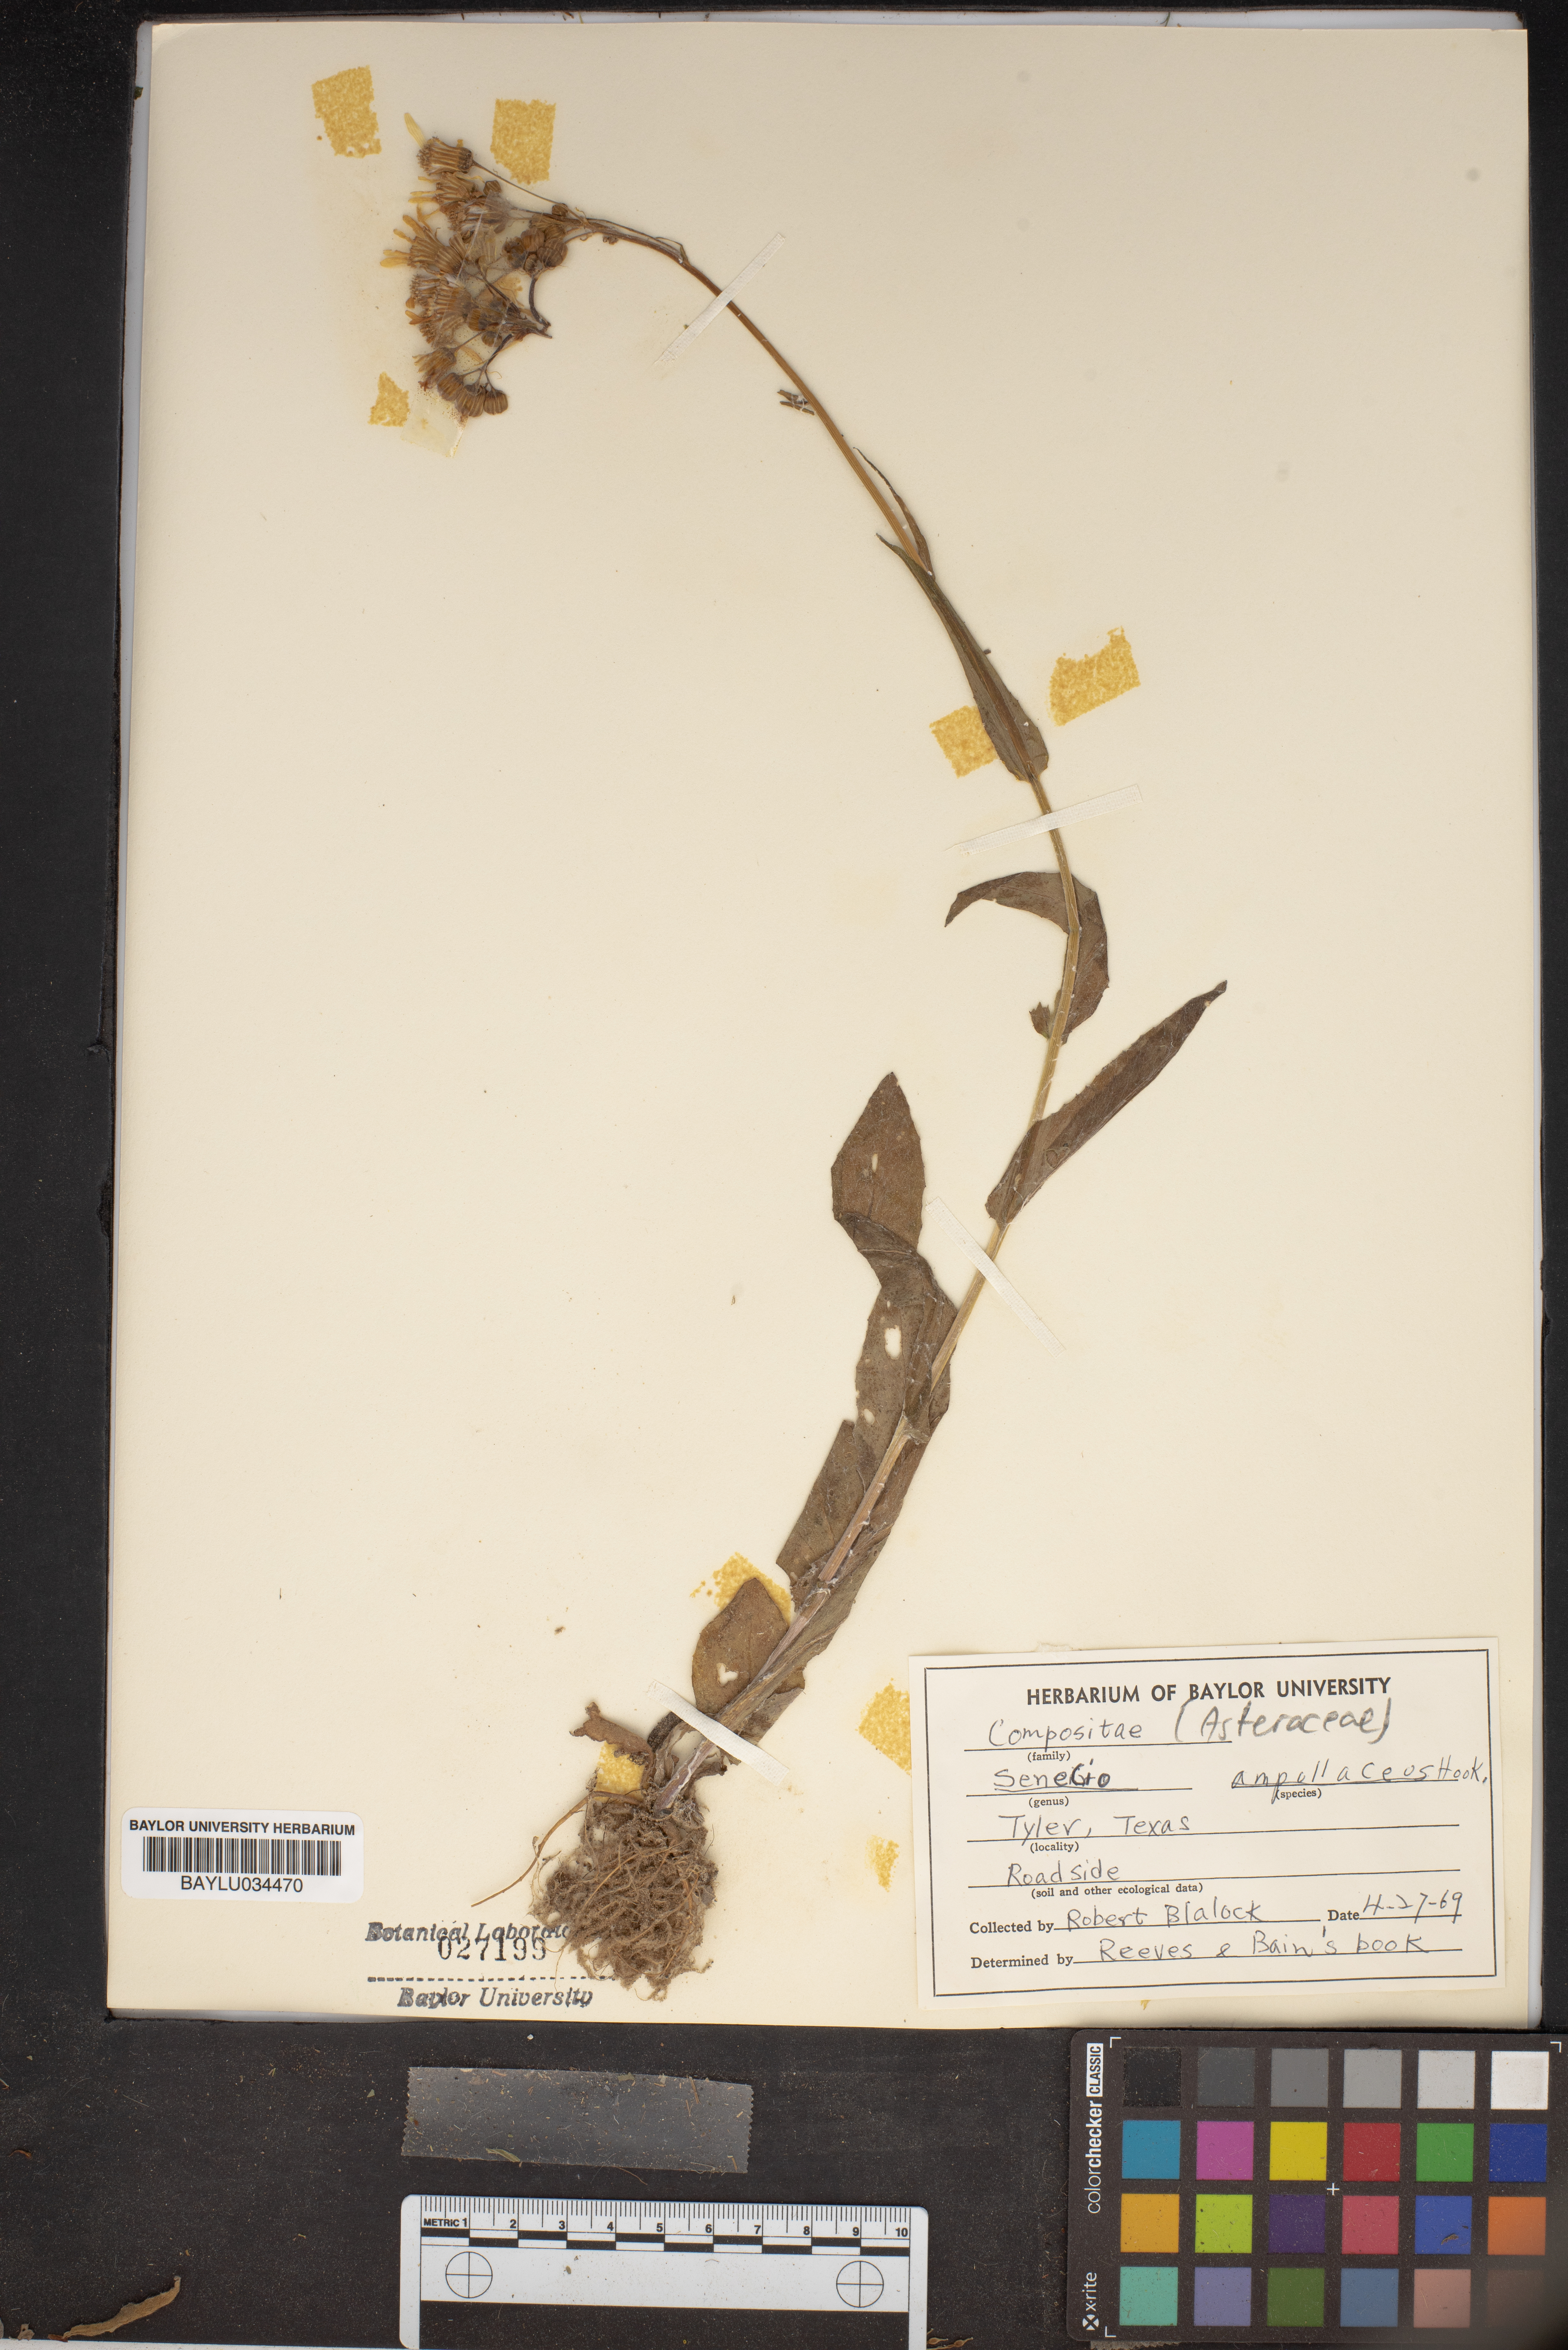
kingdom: Plantae
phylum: Tracheophyta
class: Magnoliopsida
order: Asterales
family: Asteraceae
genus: Senecio
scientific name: Senecio ampullaceus
